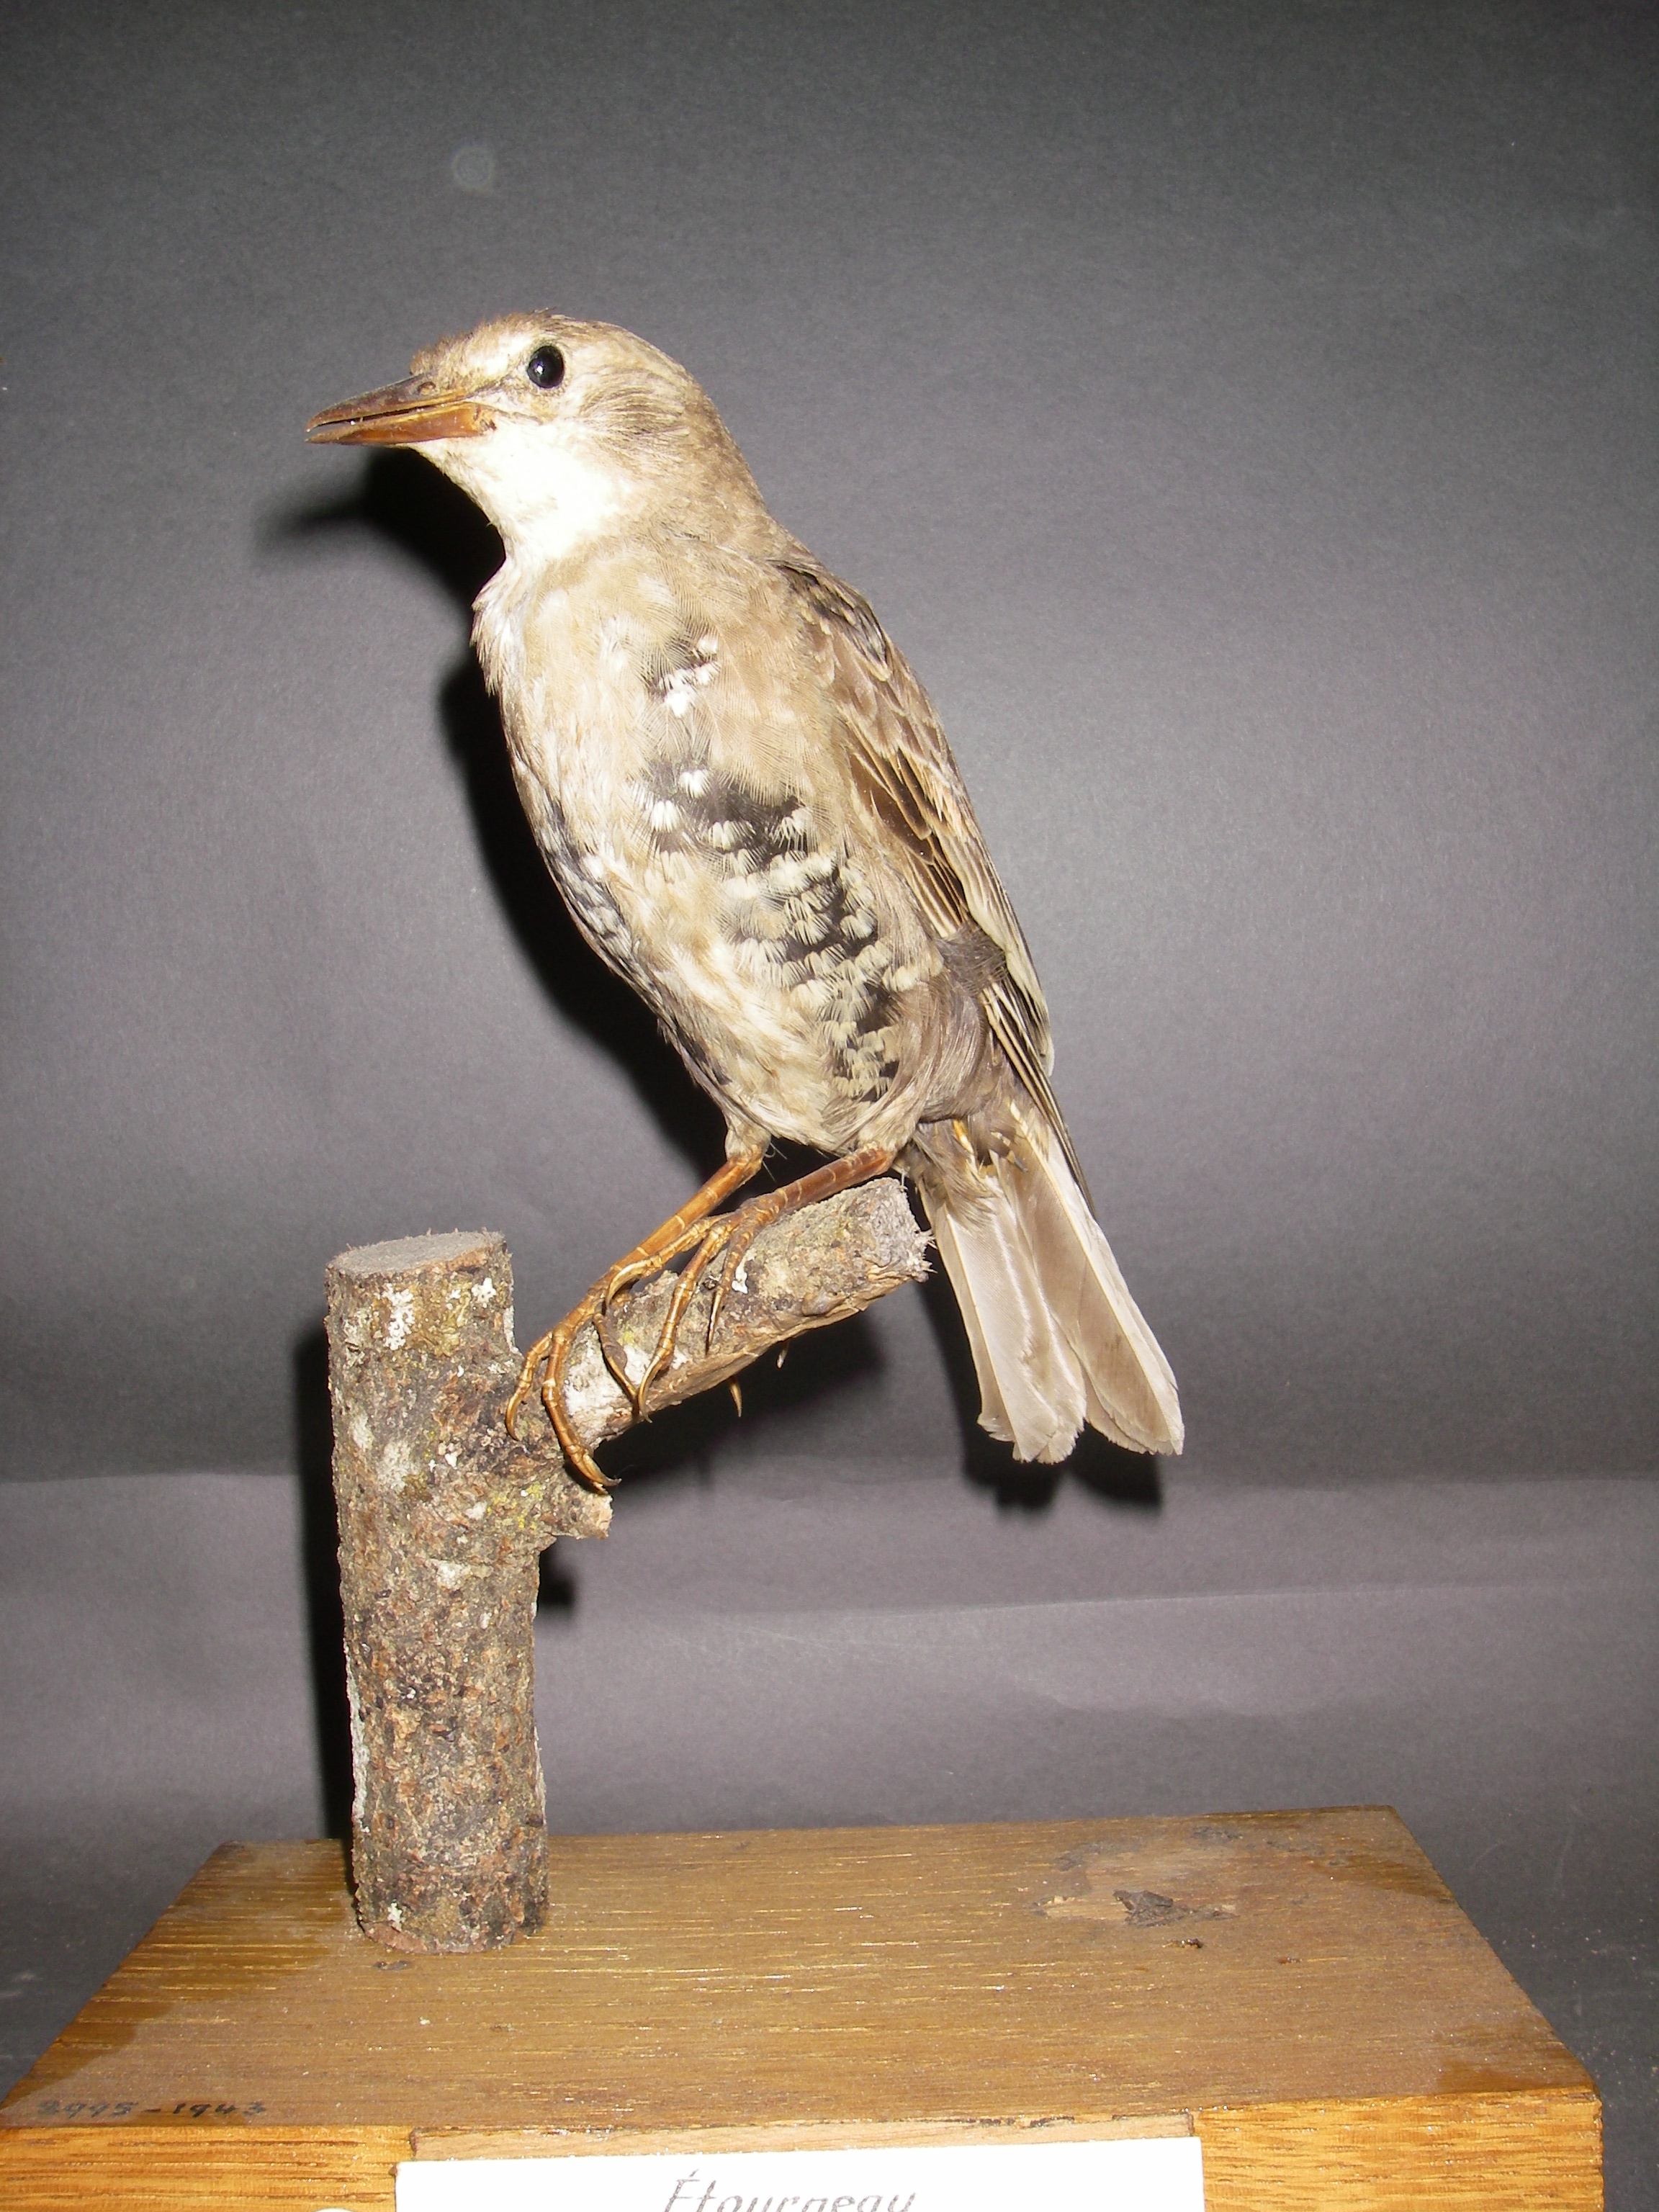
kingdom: Animalia
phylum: Chordata
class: Aves
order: Passeriformes
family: Sturnidae
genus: Sturnus
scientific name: Sturnus vulgaris
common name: Common starling
